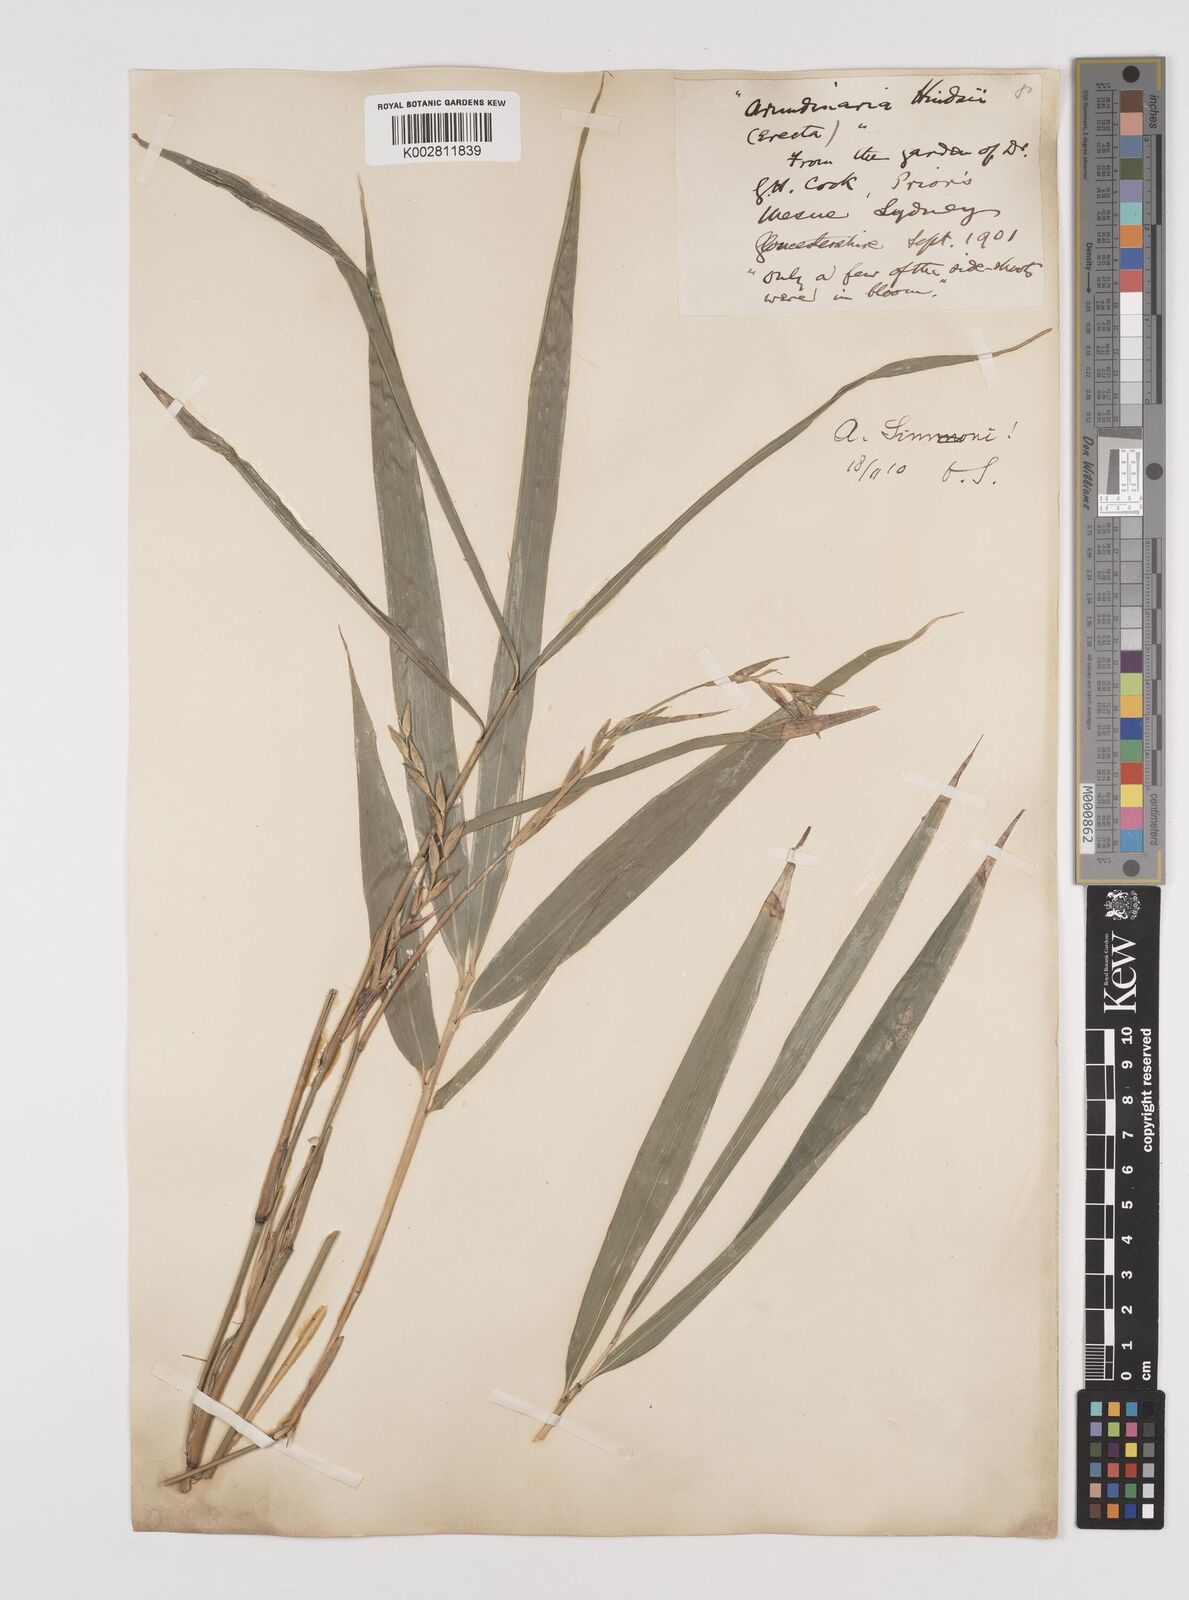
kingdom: Plantae
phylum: Tracheophyta
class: Liliopsida
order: Poales
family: Poaceae
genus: Pleioblastus
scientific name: Pleioblastus simonii
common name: Simon bamboo
